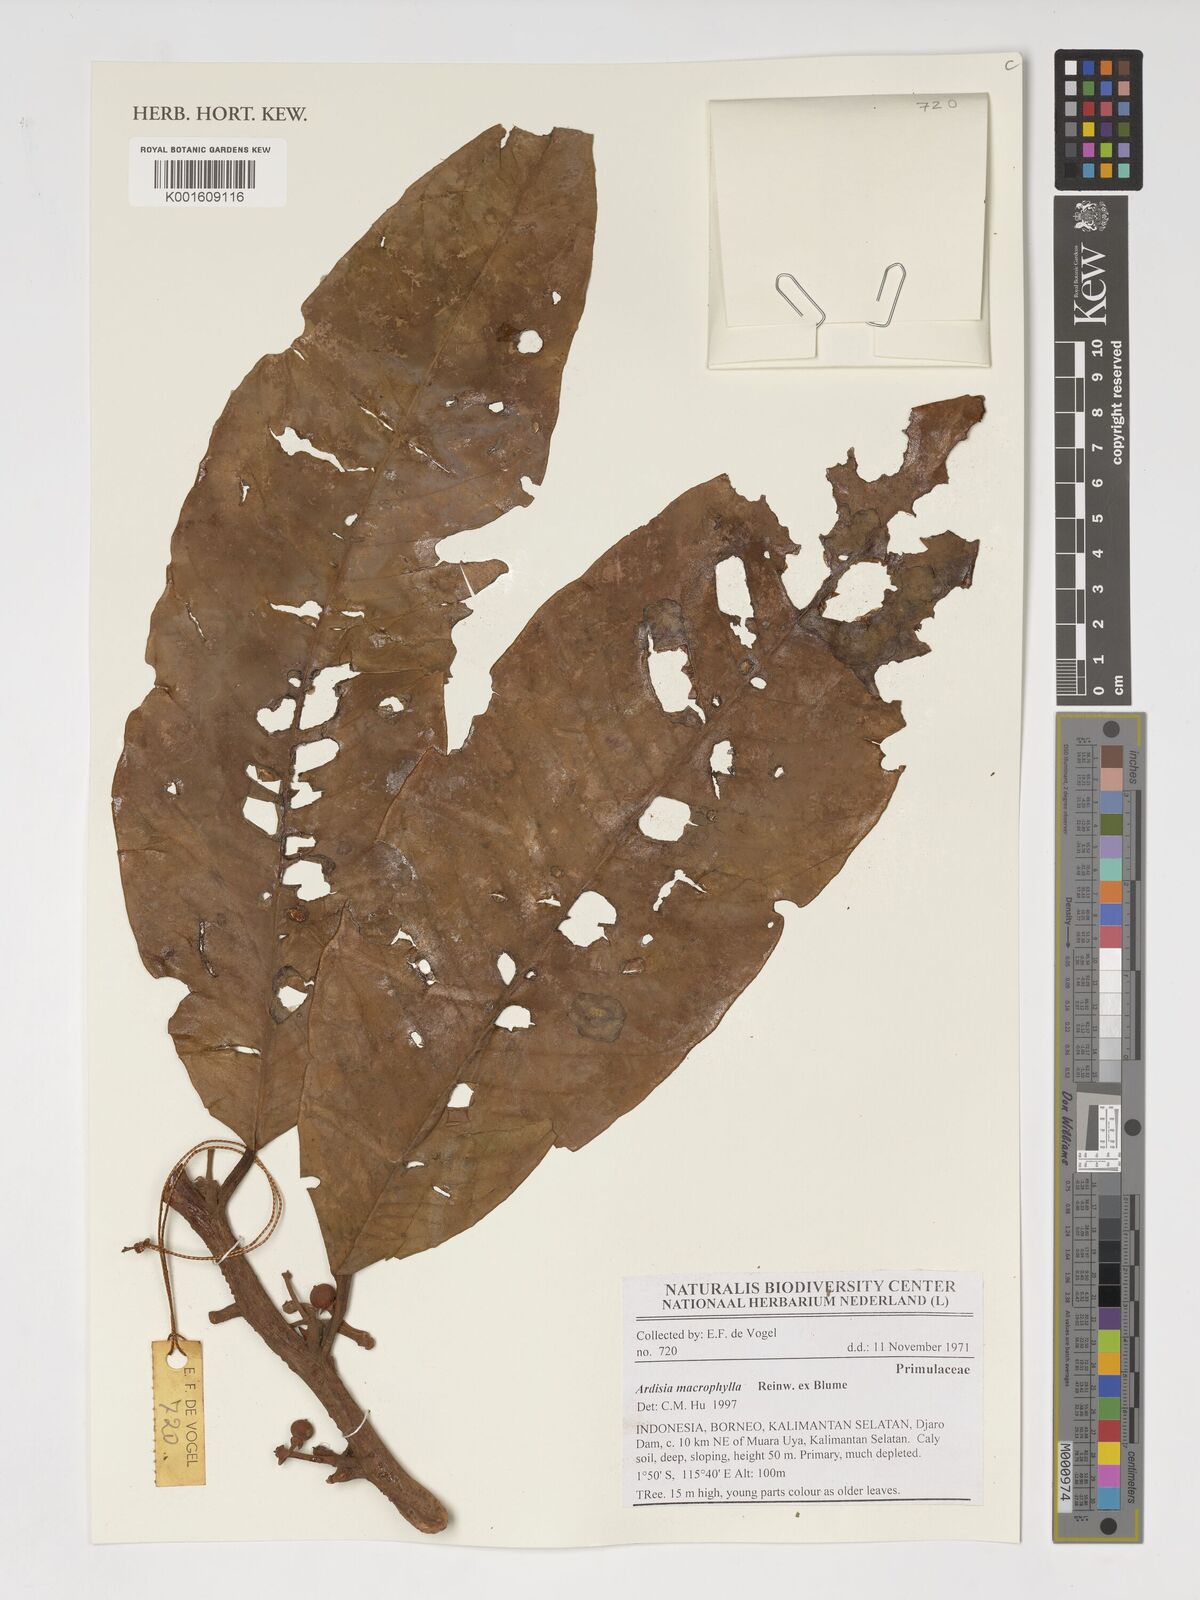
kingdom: Plantae
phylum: Tracheophyta
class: Magnoliopsida
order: Ericales
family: Primulaceae
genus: Ardisia
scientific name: Ardisia macrophylla
